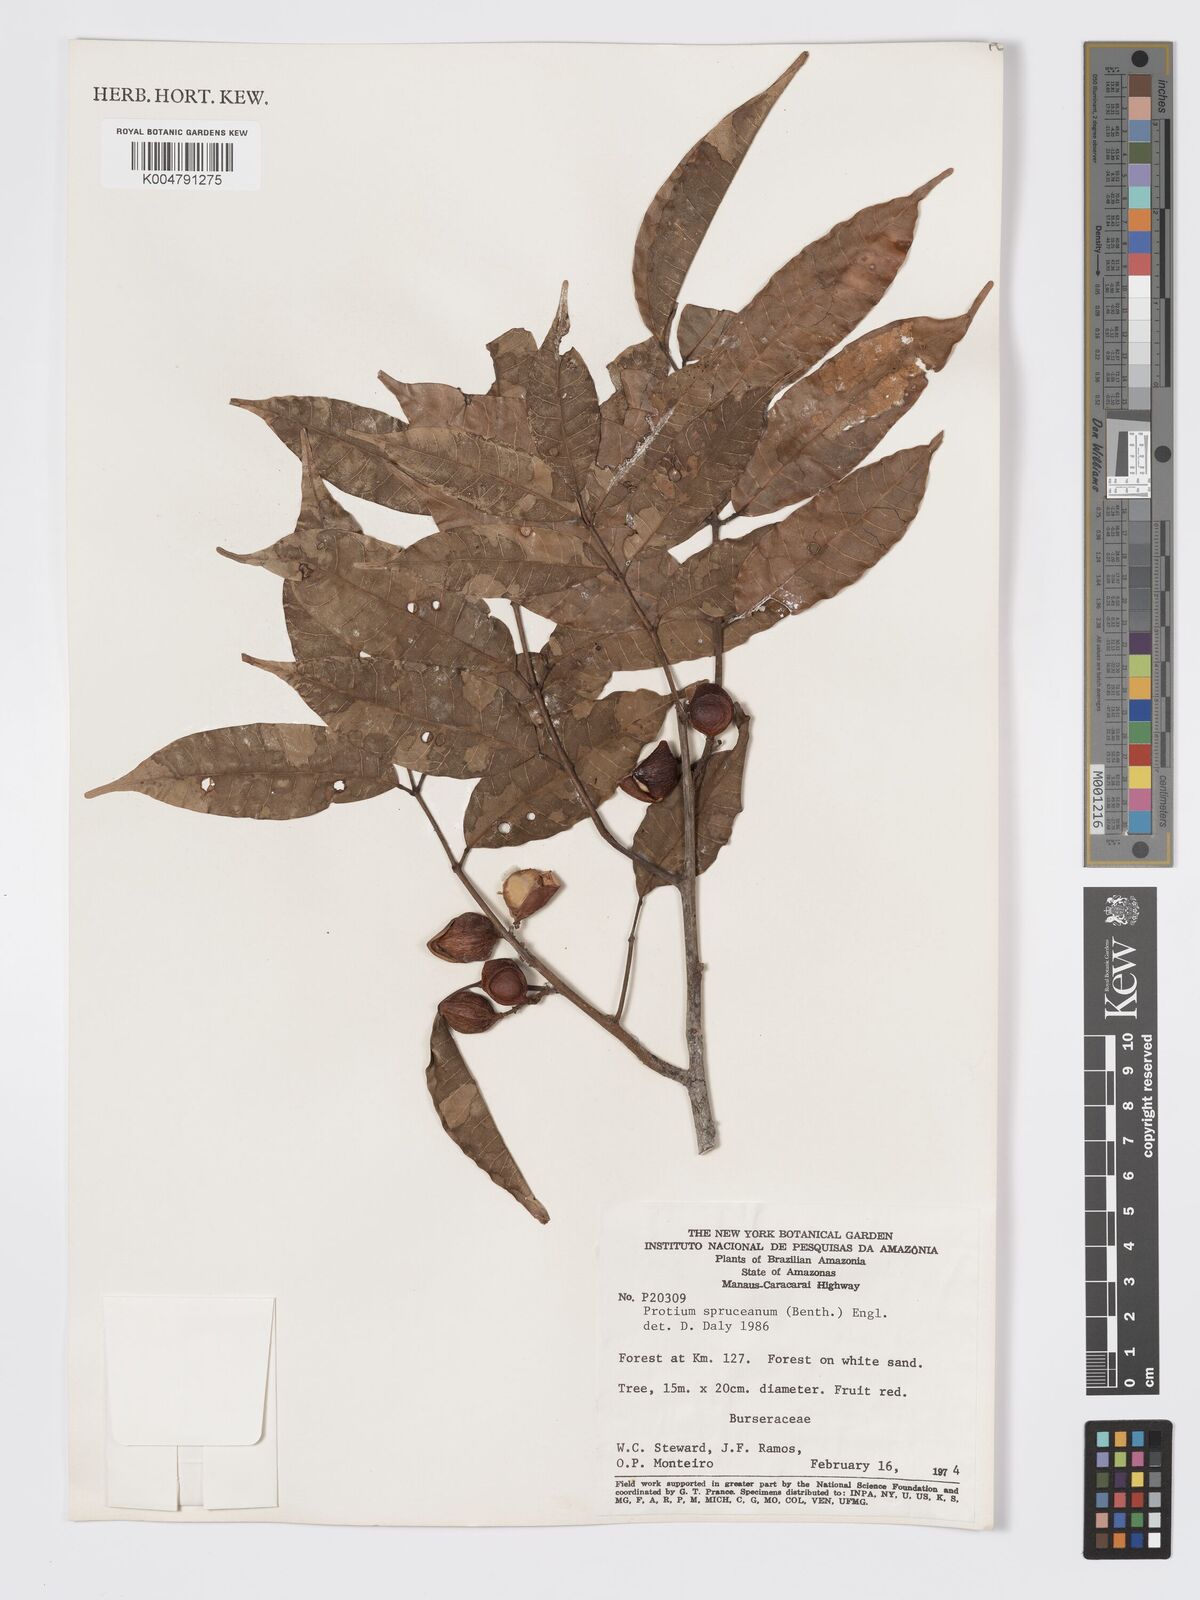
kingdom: Plantae
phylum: Tracheophyta
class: Magnoliopsida
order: Sapindales
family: Burseraceae
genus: Protium
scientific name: Protium spruceanum
